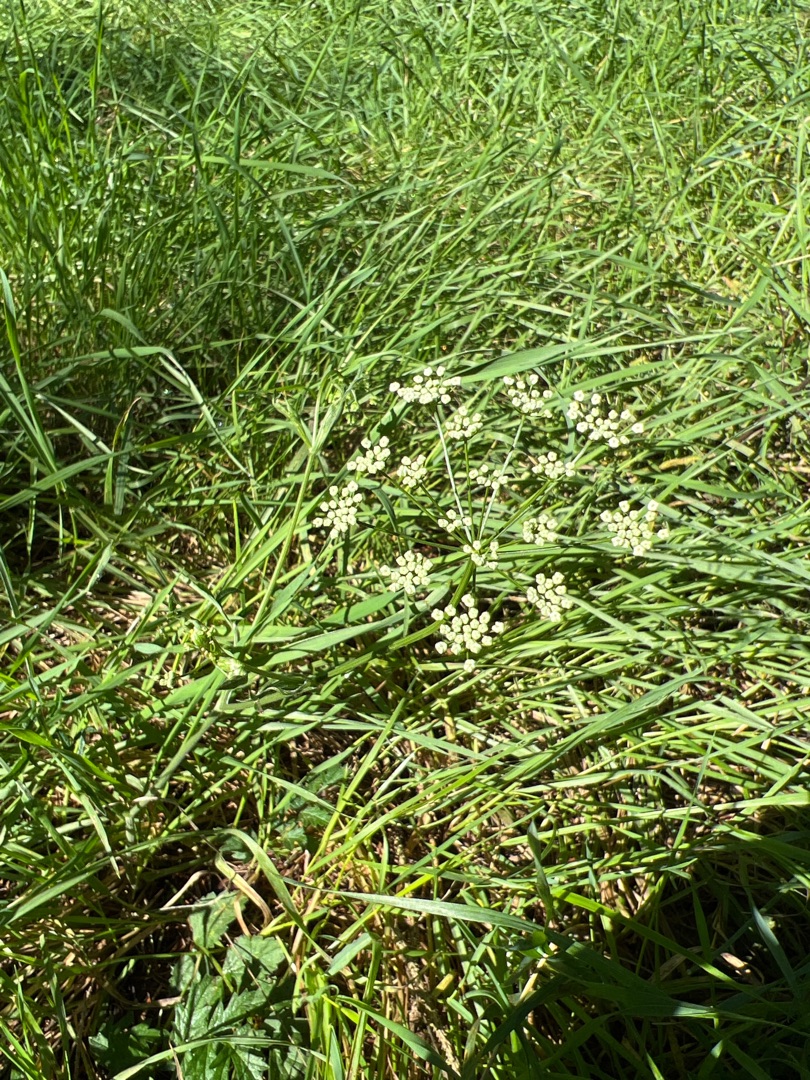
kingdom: Plantae
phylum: Tracheophyta
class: Magnoliopsida
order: Apiales
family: Apiaceae
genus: Pimpinella
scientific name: Pimpinella saxifraga
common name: Almindelig pimpinelle
